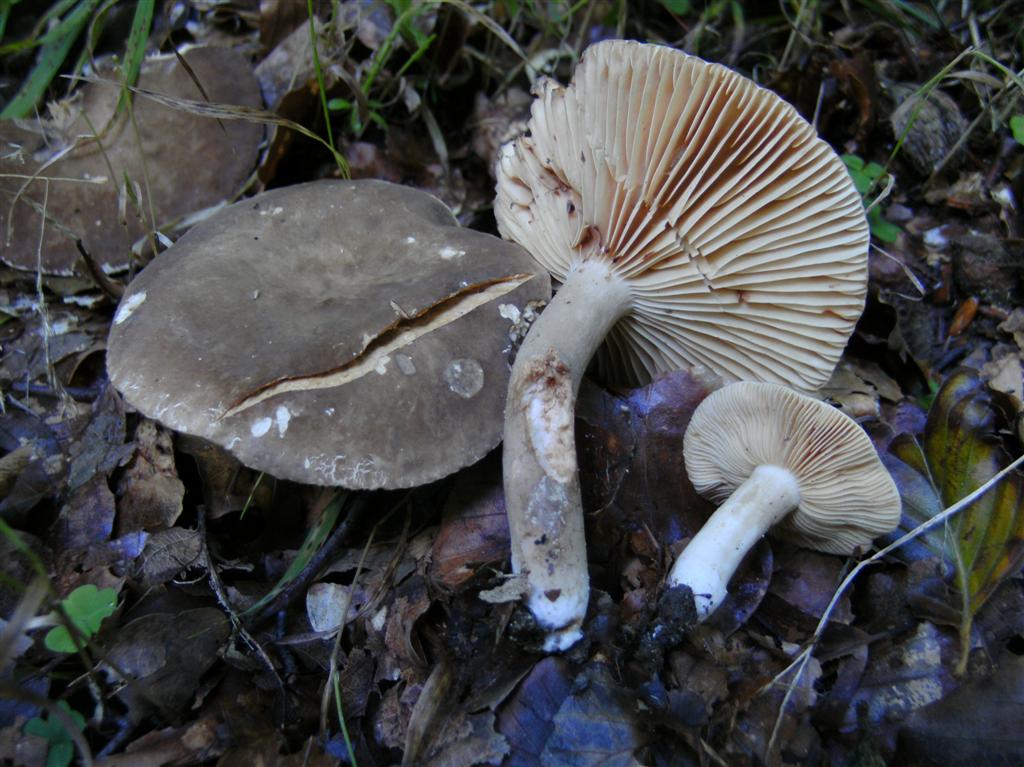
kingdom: Fungi
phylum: Basidiomycota
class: Agaricomycetes
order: Russulales
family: Russulaceae
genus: Lactarius
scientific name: Lactarius romagnesii
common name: fjernbladet mælkehat
